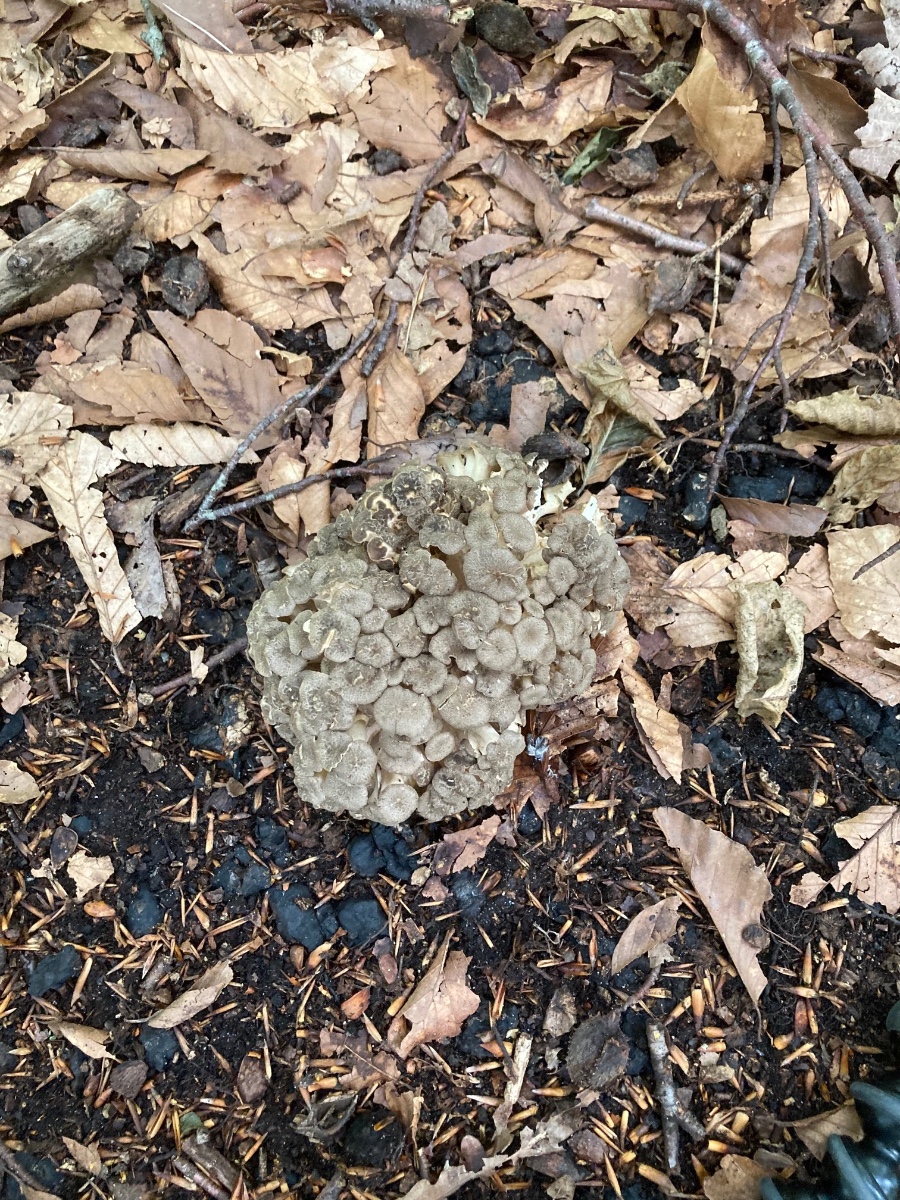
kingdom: Fungi
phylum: Basidiomycota
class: Agaricomycetes
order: Polyporales
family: Polyporaceae
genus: Polyporus
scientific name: Polyporus umbellatus
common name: skærmformet stilkporesvamp
